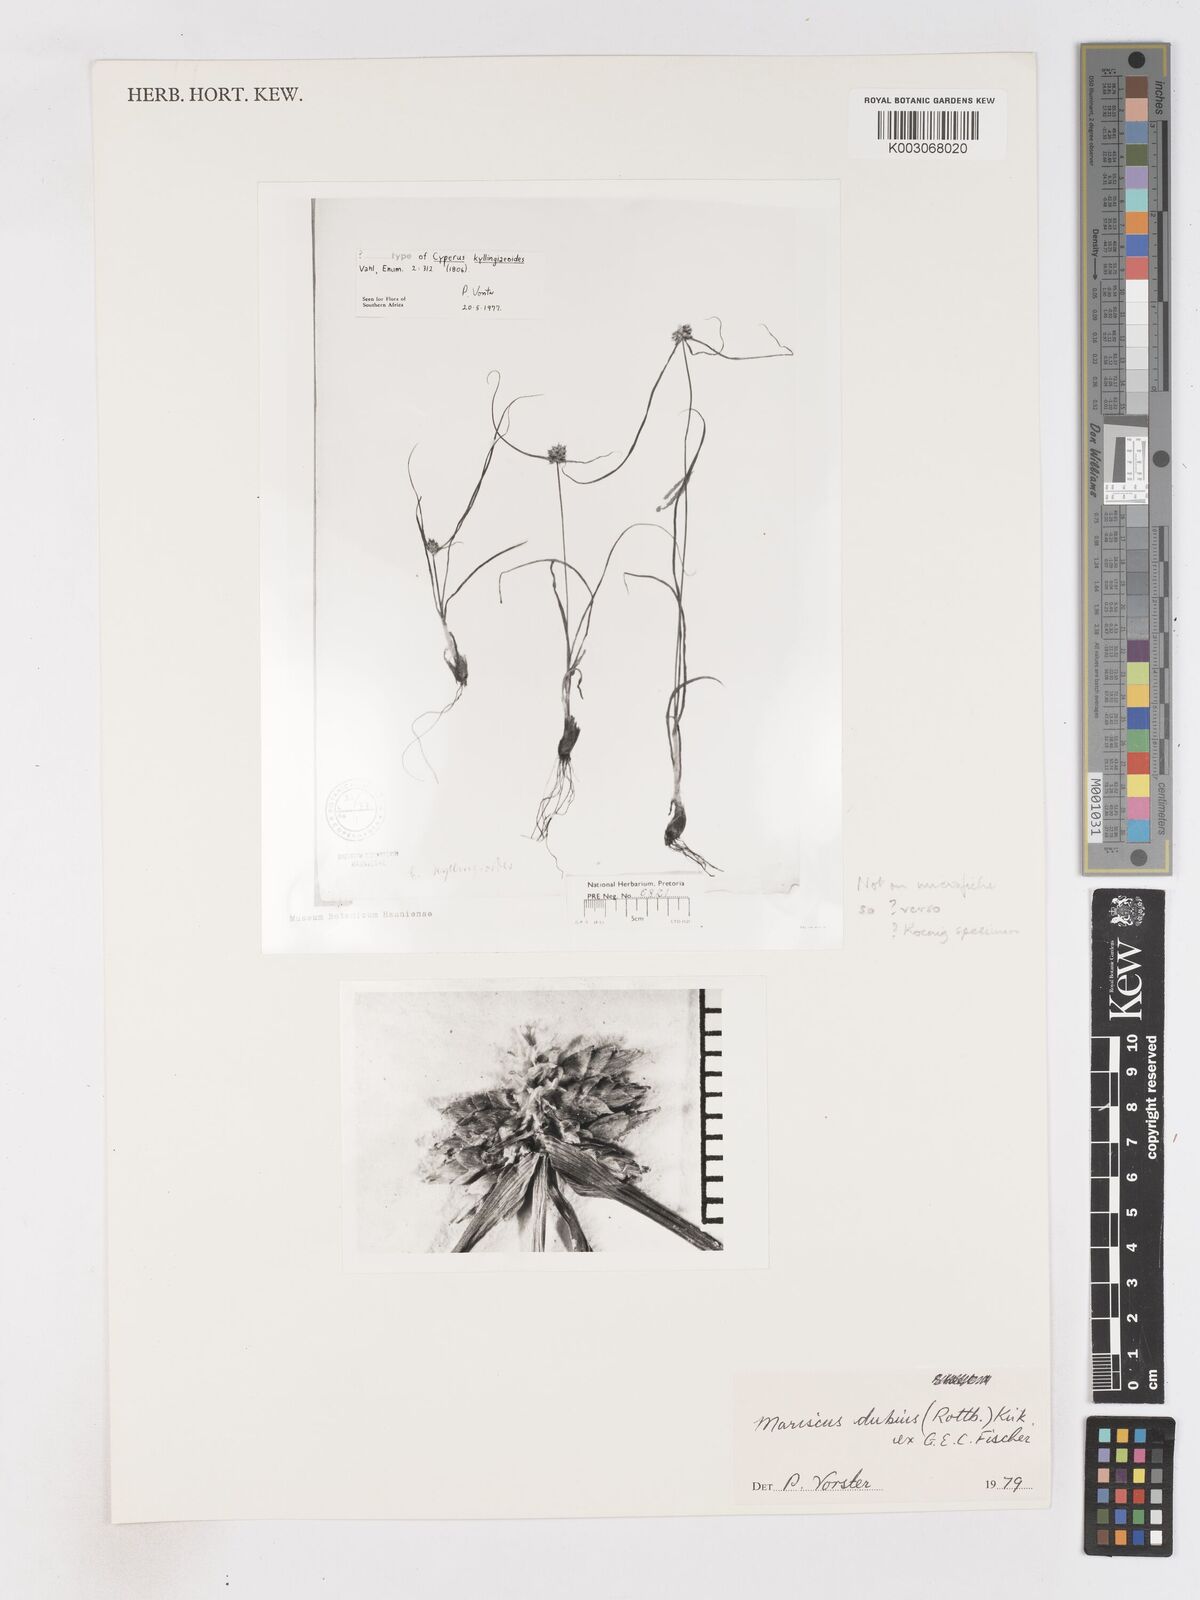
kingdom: Plantae
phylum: Tracheophyta
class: Liliopsida
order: Poales
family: Cyperaceae
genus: Cyperus
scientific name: Cyperus dubius
